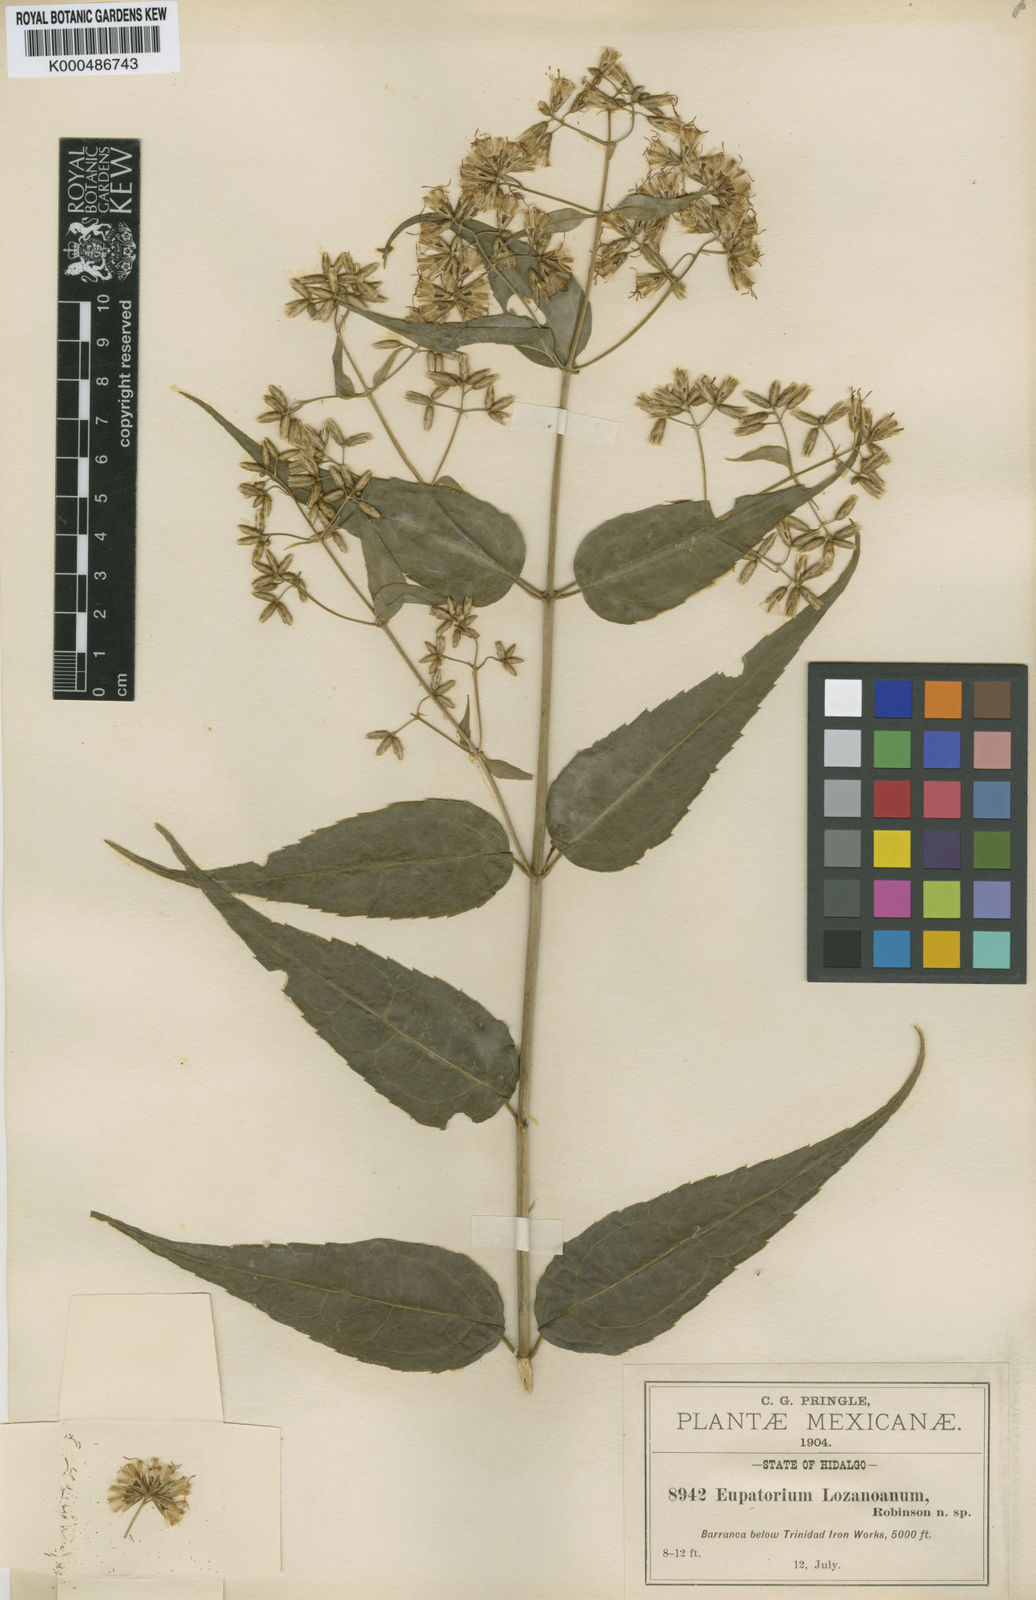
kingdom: Plantae
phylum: Tracheophyta
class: Magnoliopsida
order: Asterales
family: Asteraceae
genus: Critonia
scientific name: Critonia lozanoana
